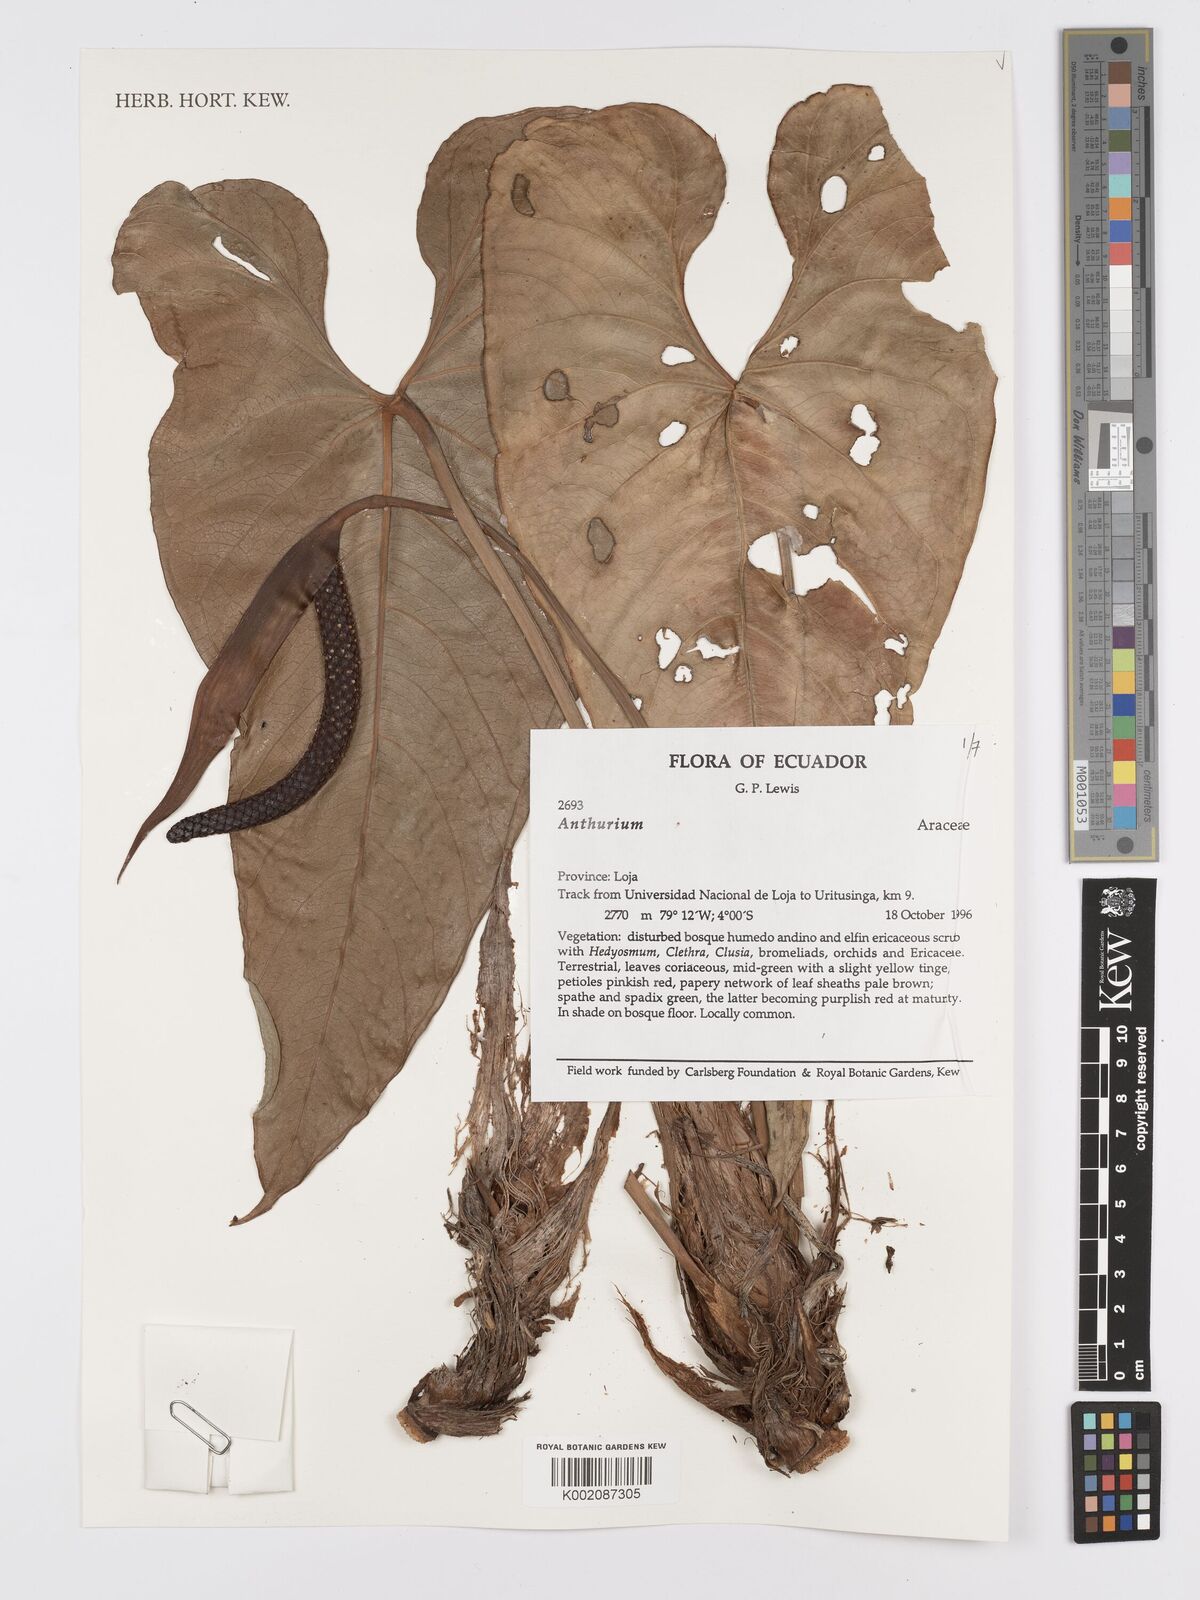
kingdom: Plantae
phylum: Tracheophyta
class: Liliopsida
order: Alismatales
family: Araceae
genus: Anthurium
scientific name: Anthurium
